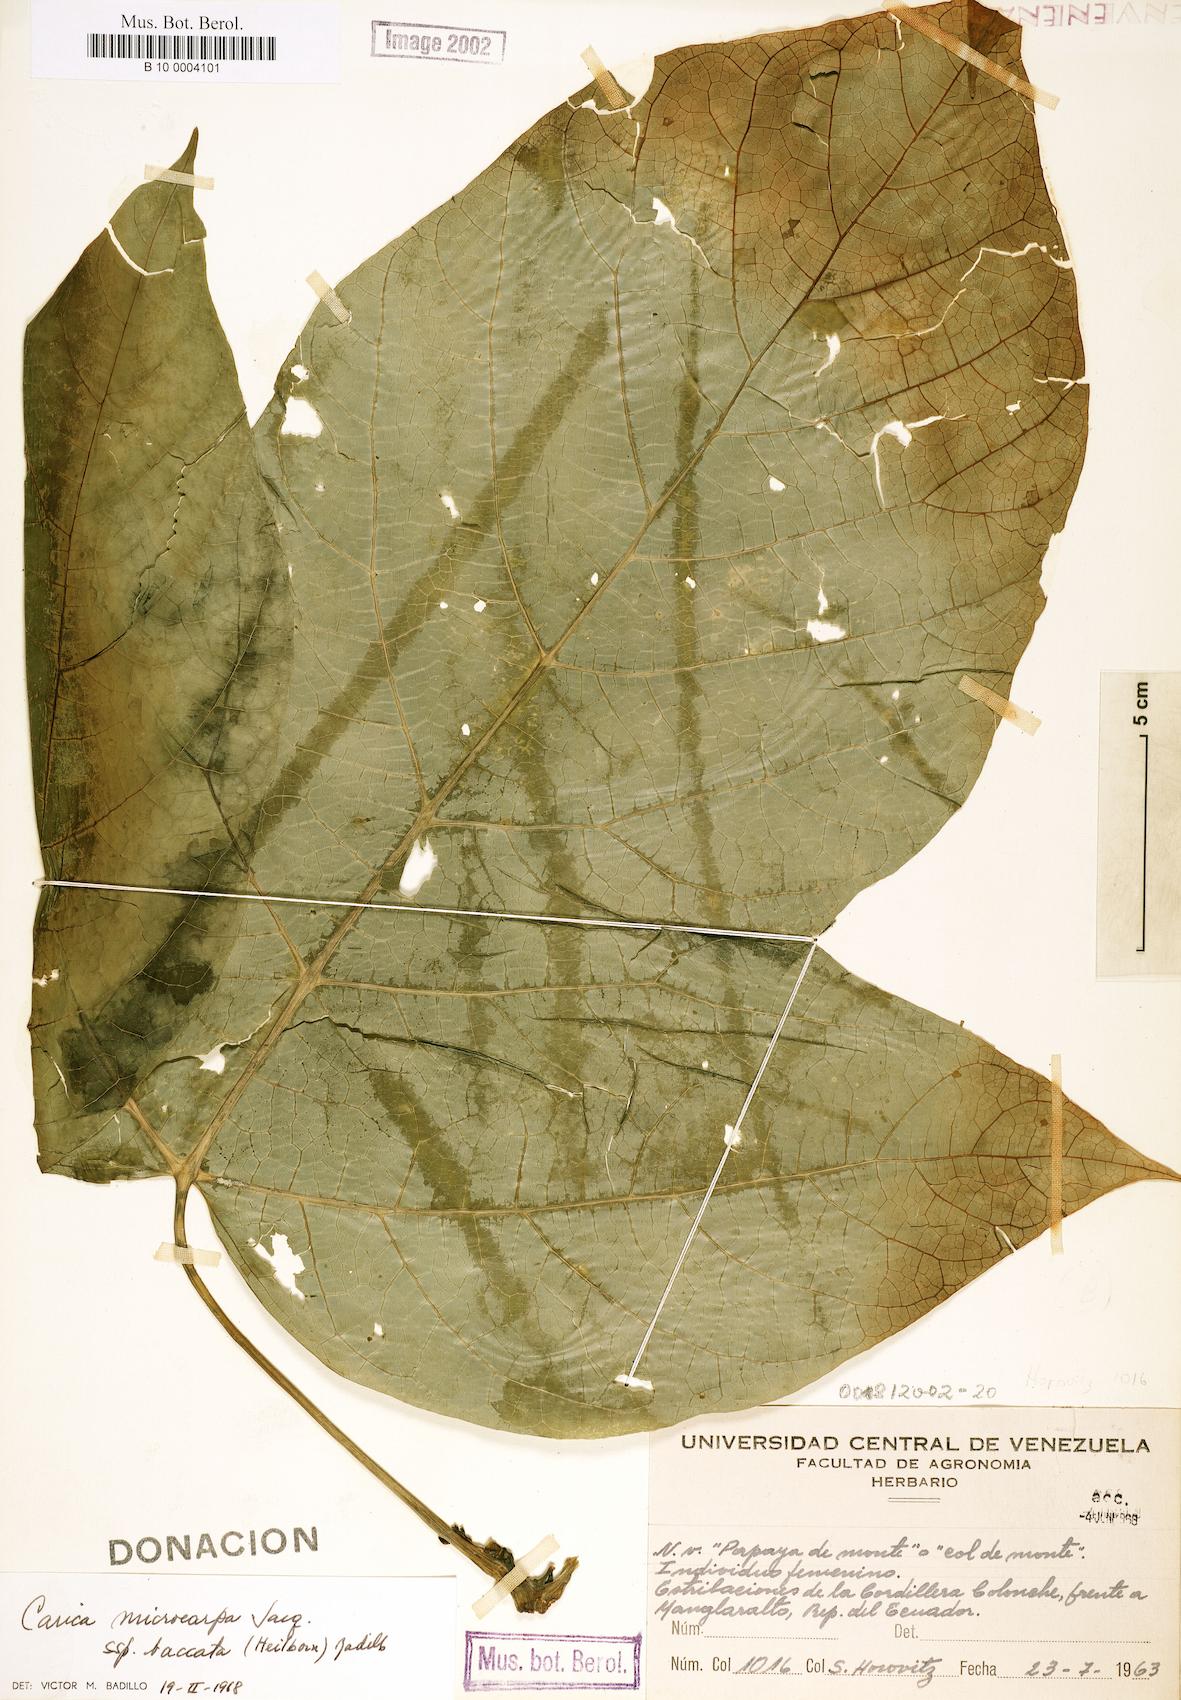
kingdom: Plantae
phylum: Tracheophyta
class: Magnoliopsida
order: Brassicales
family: Caricaceae
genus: Vasconcellea
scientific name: Vasconcellea microcarpa
